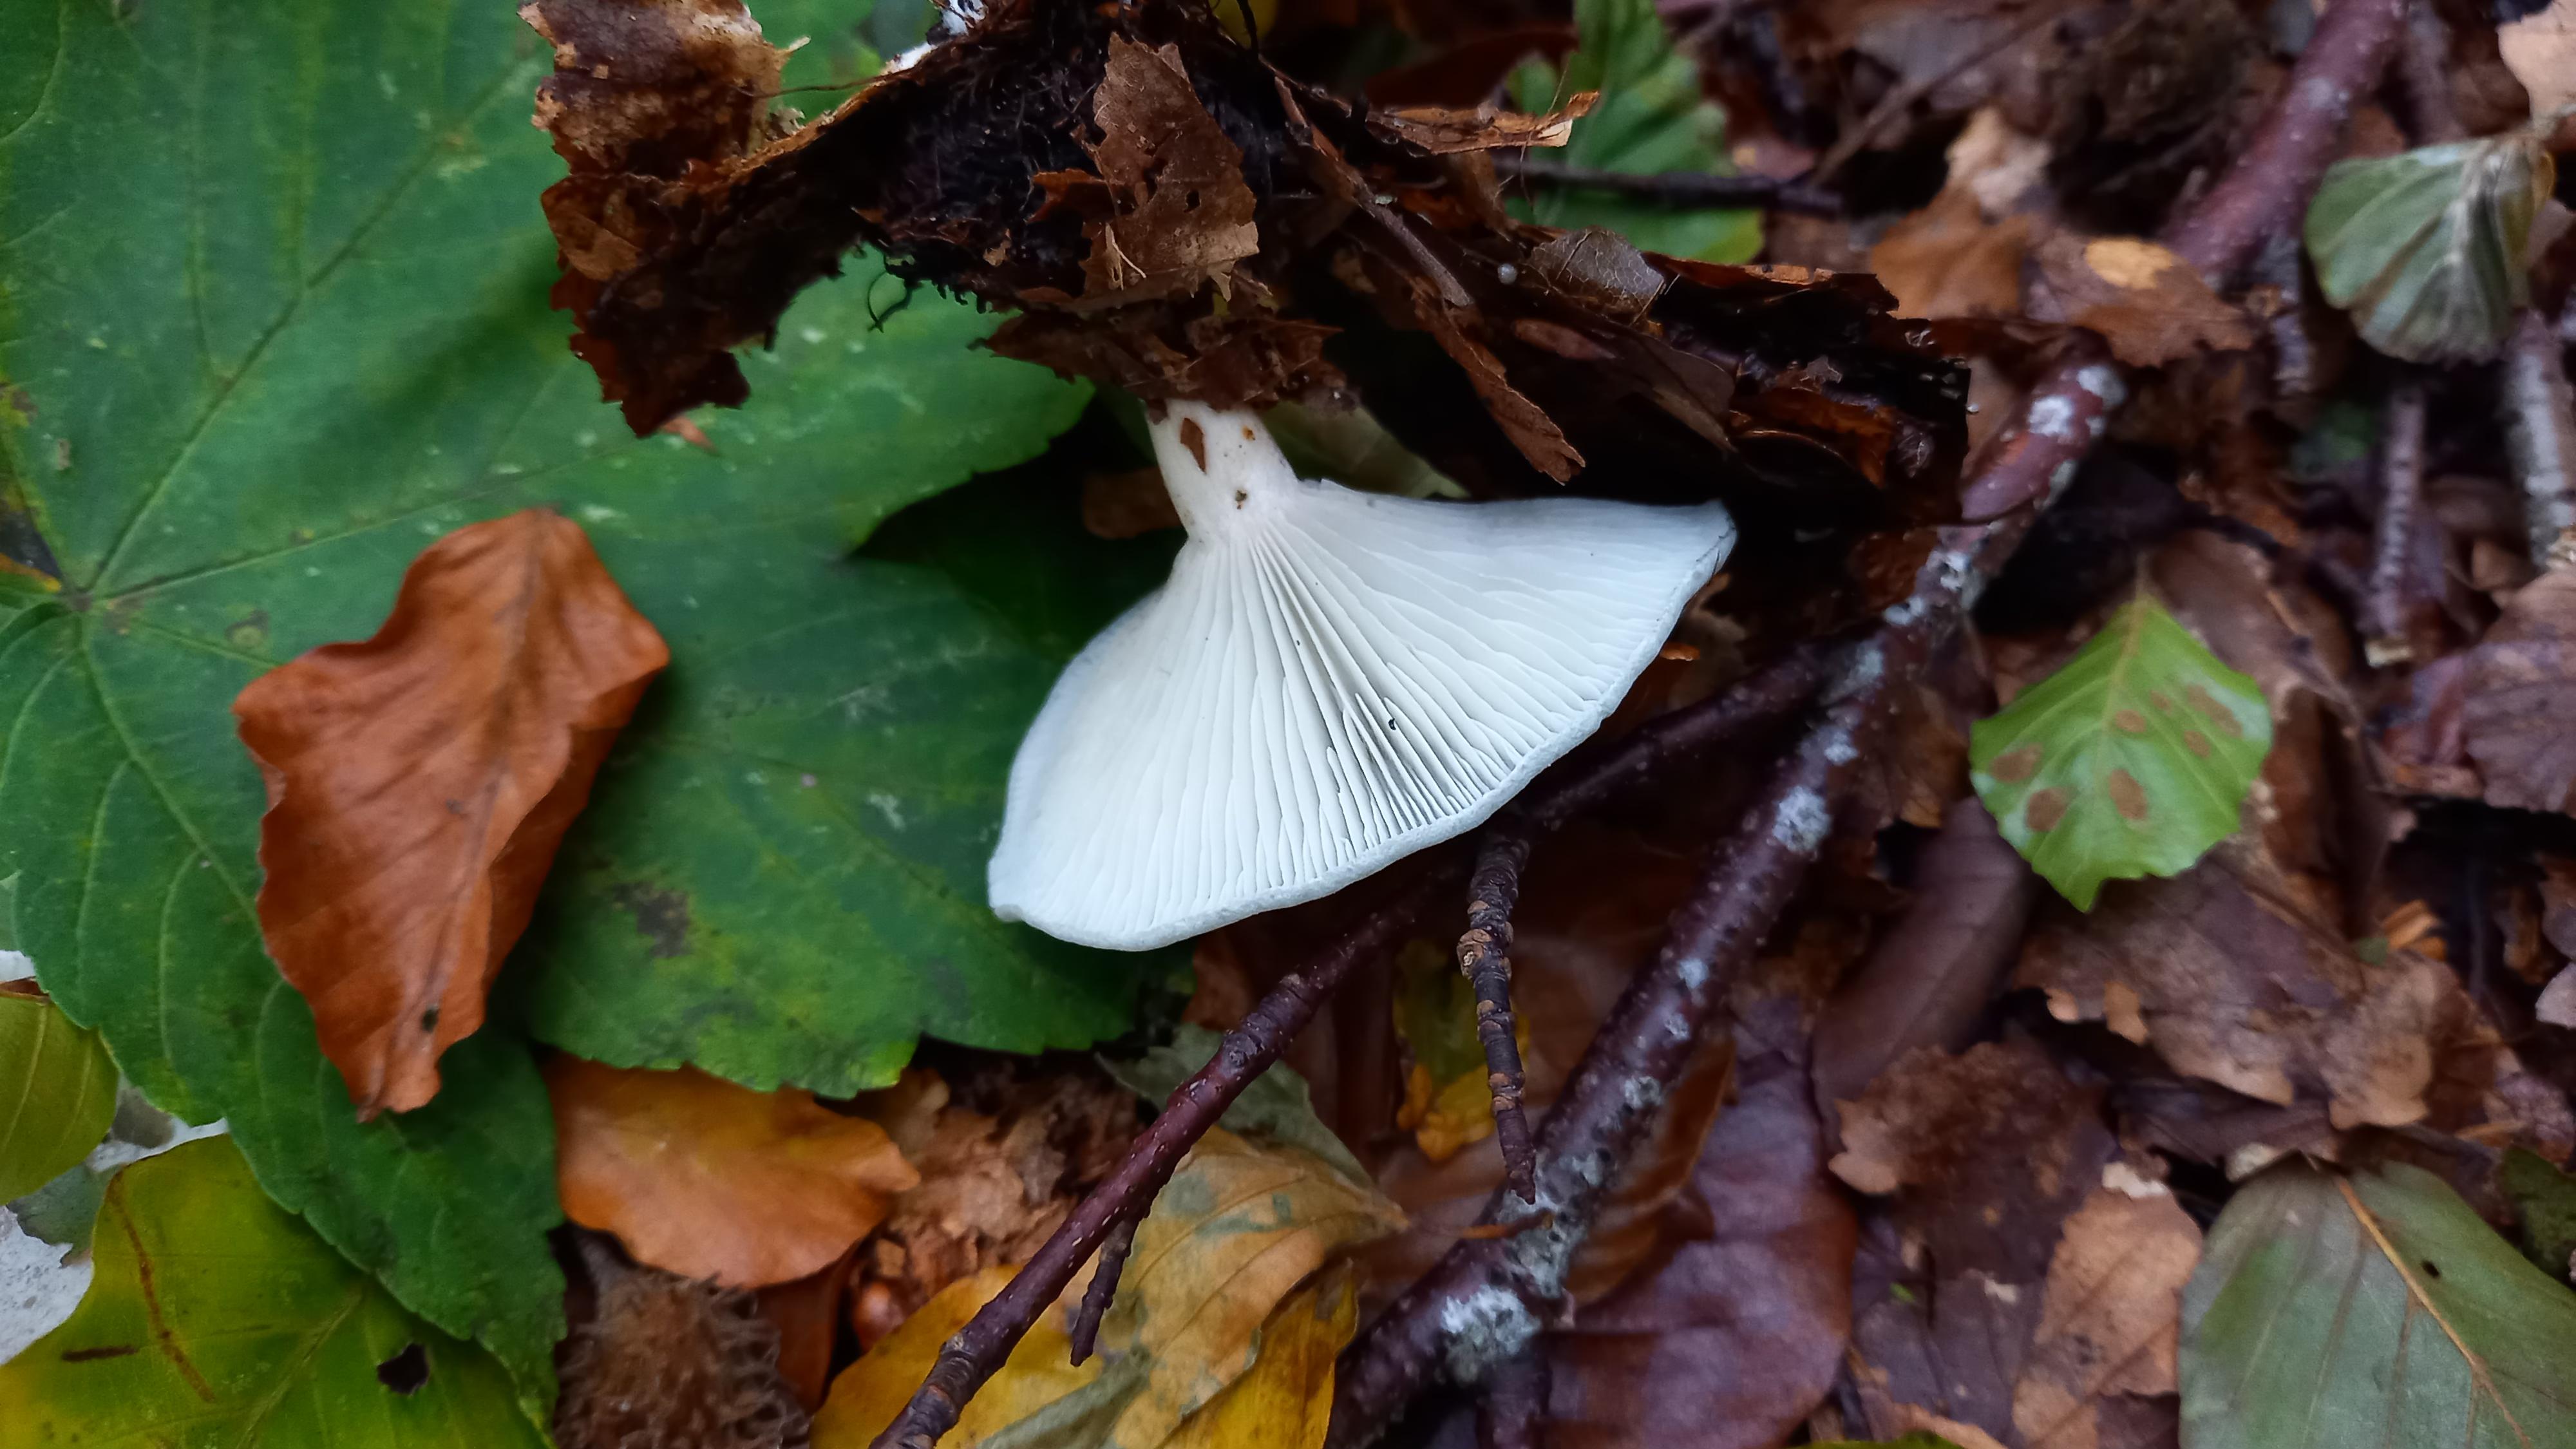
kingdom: Fungi
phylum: Basidiomycota
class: Agaricomycetes
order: Agaricales
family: Tricholomataceae
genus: Clitocybe
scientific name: Clitocybe odora
